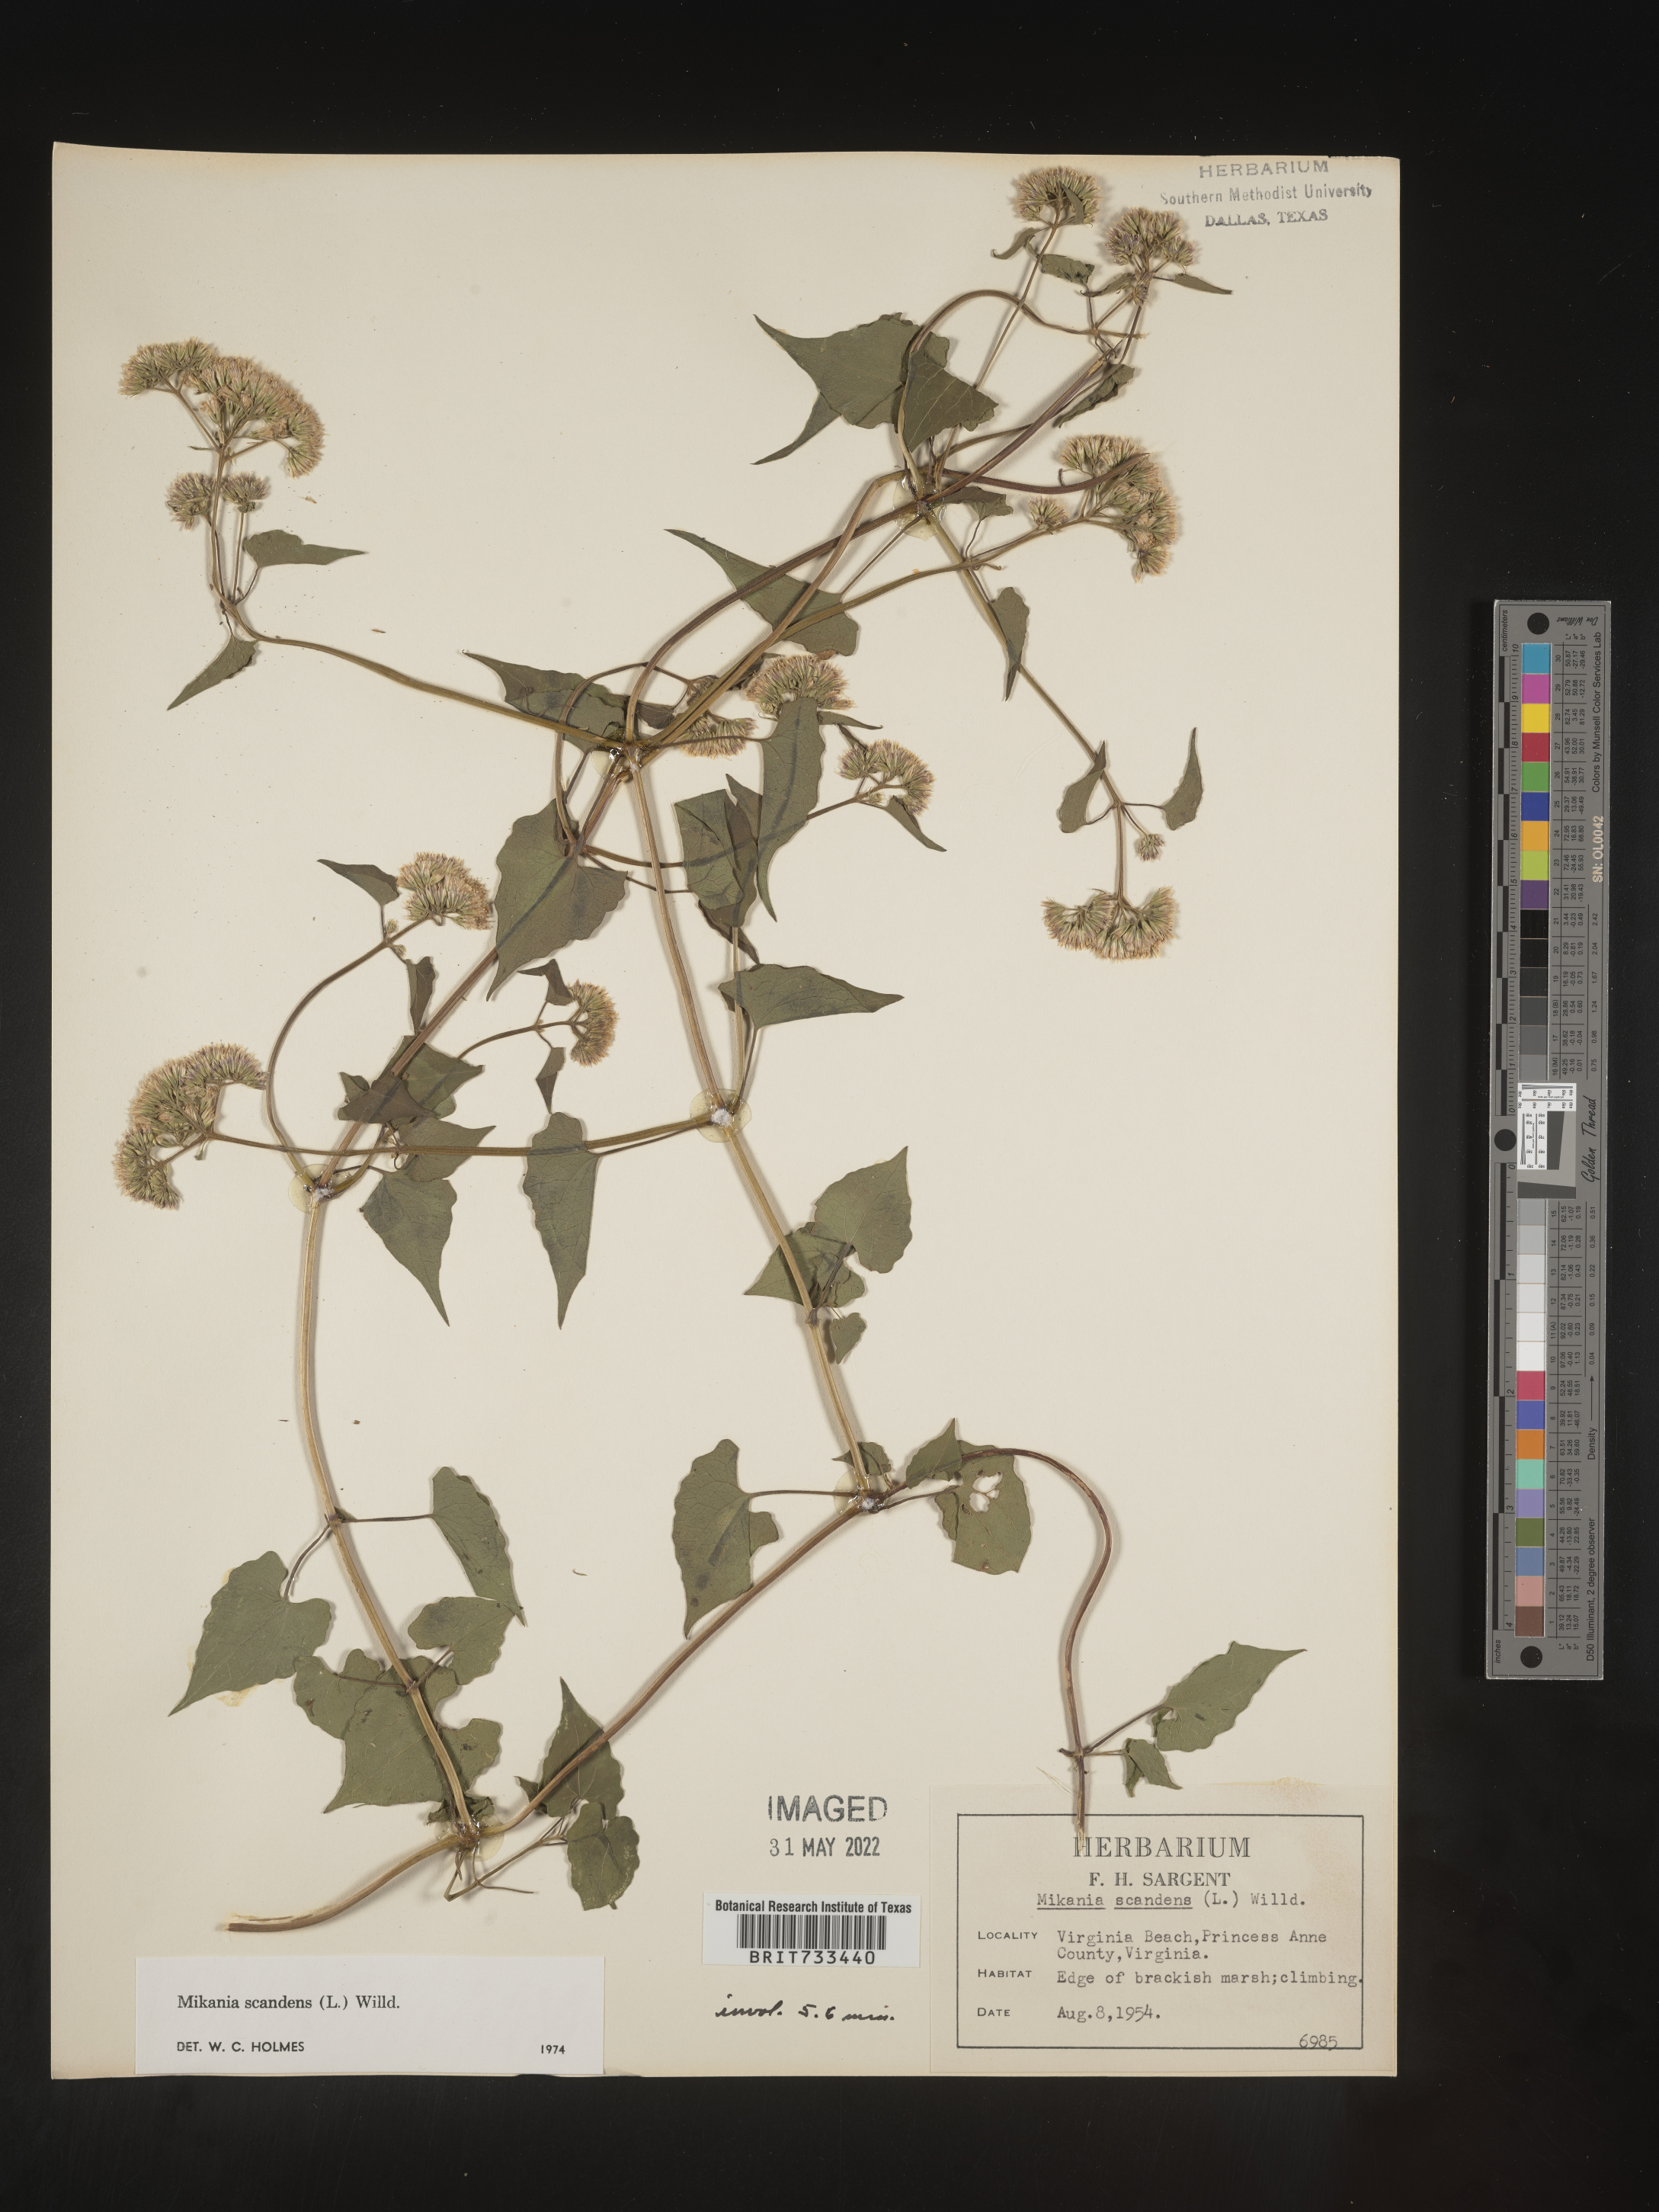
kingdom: Plantae
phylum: Tracheophyta
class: Magnoliopsida
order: Asterales
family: Asteraceae
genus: Mikania
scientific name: Mikania scandens
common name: Climbing hempvine
